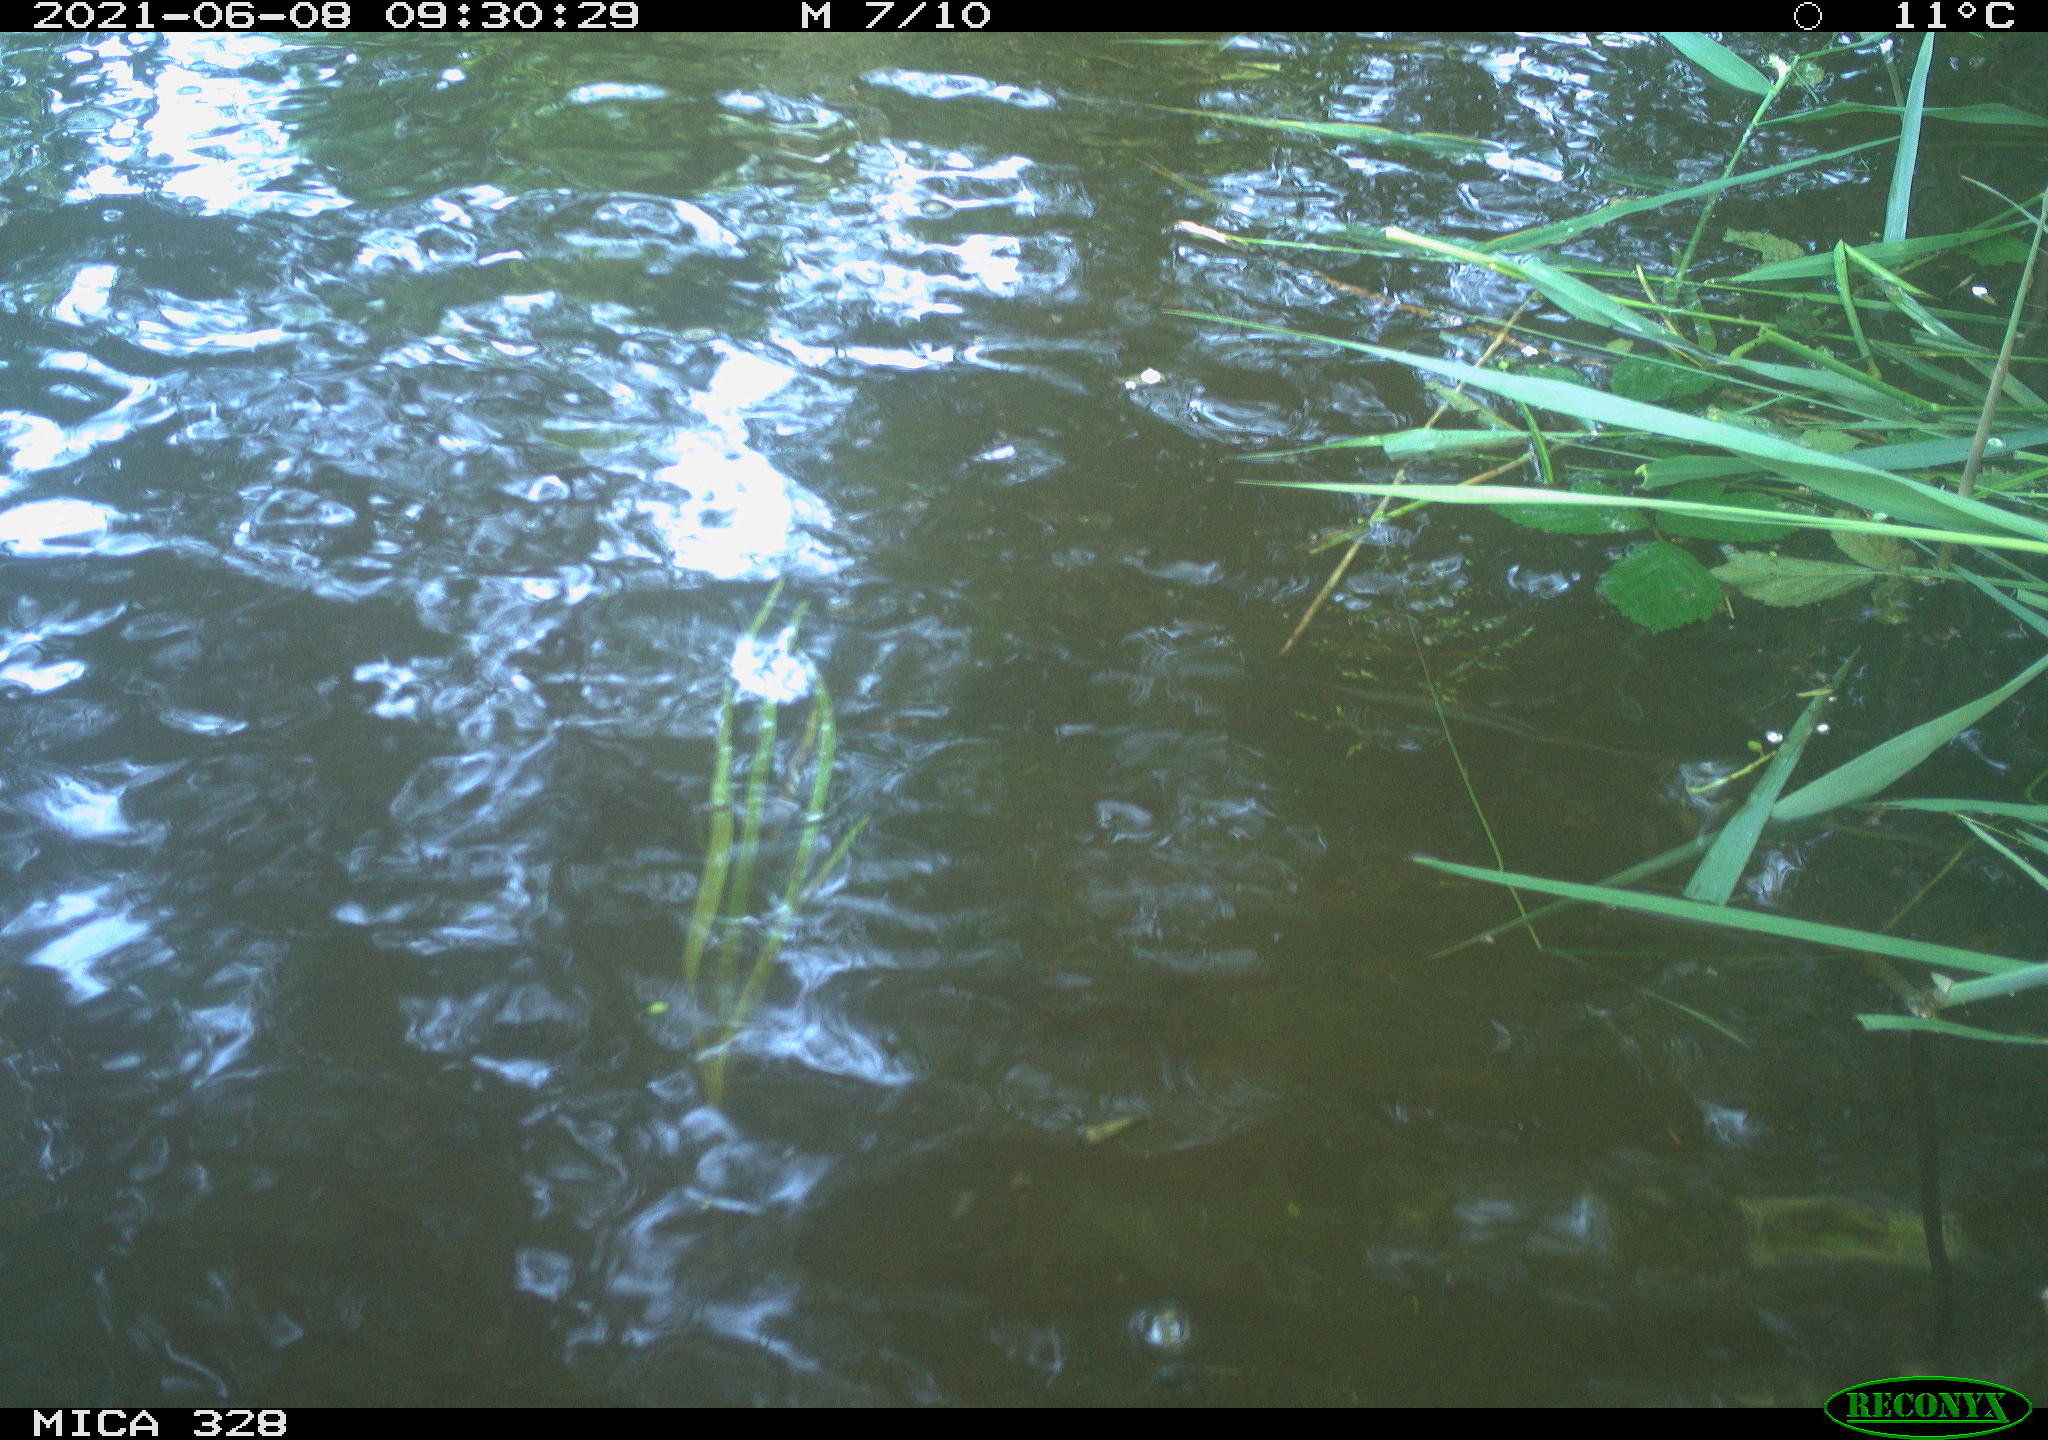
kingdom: Animalia
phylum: Chordata
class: Aves
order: Anseriformes
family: Anatidae
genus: Aix
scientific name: Aix galericulata
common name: Mandarin duck
